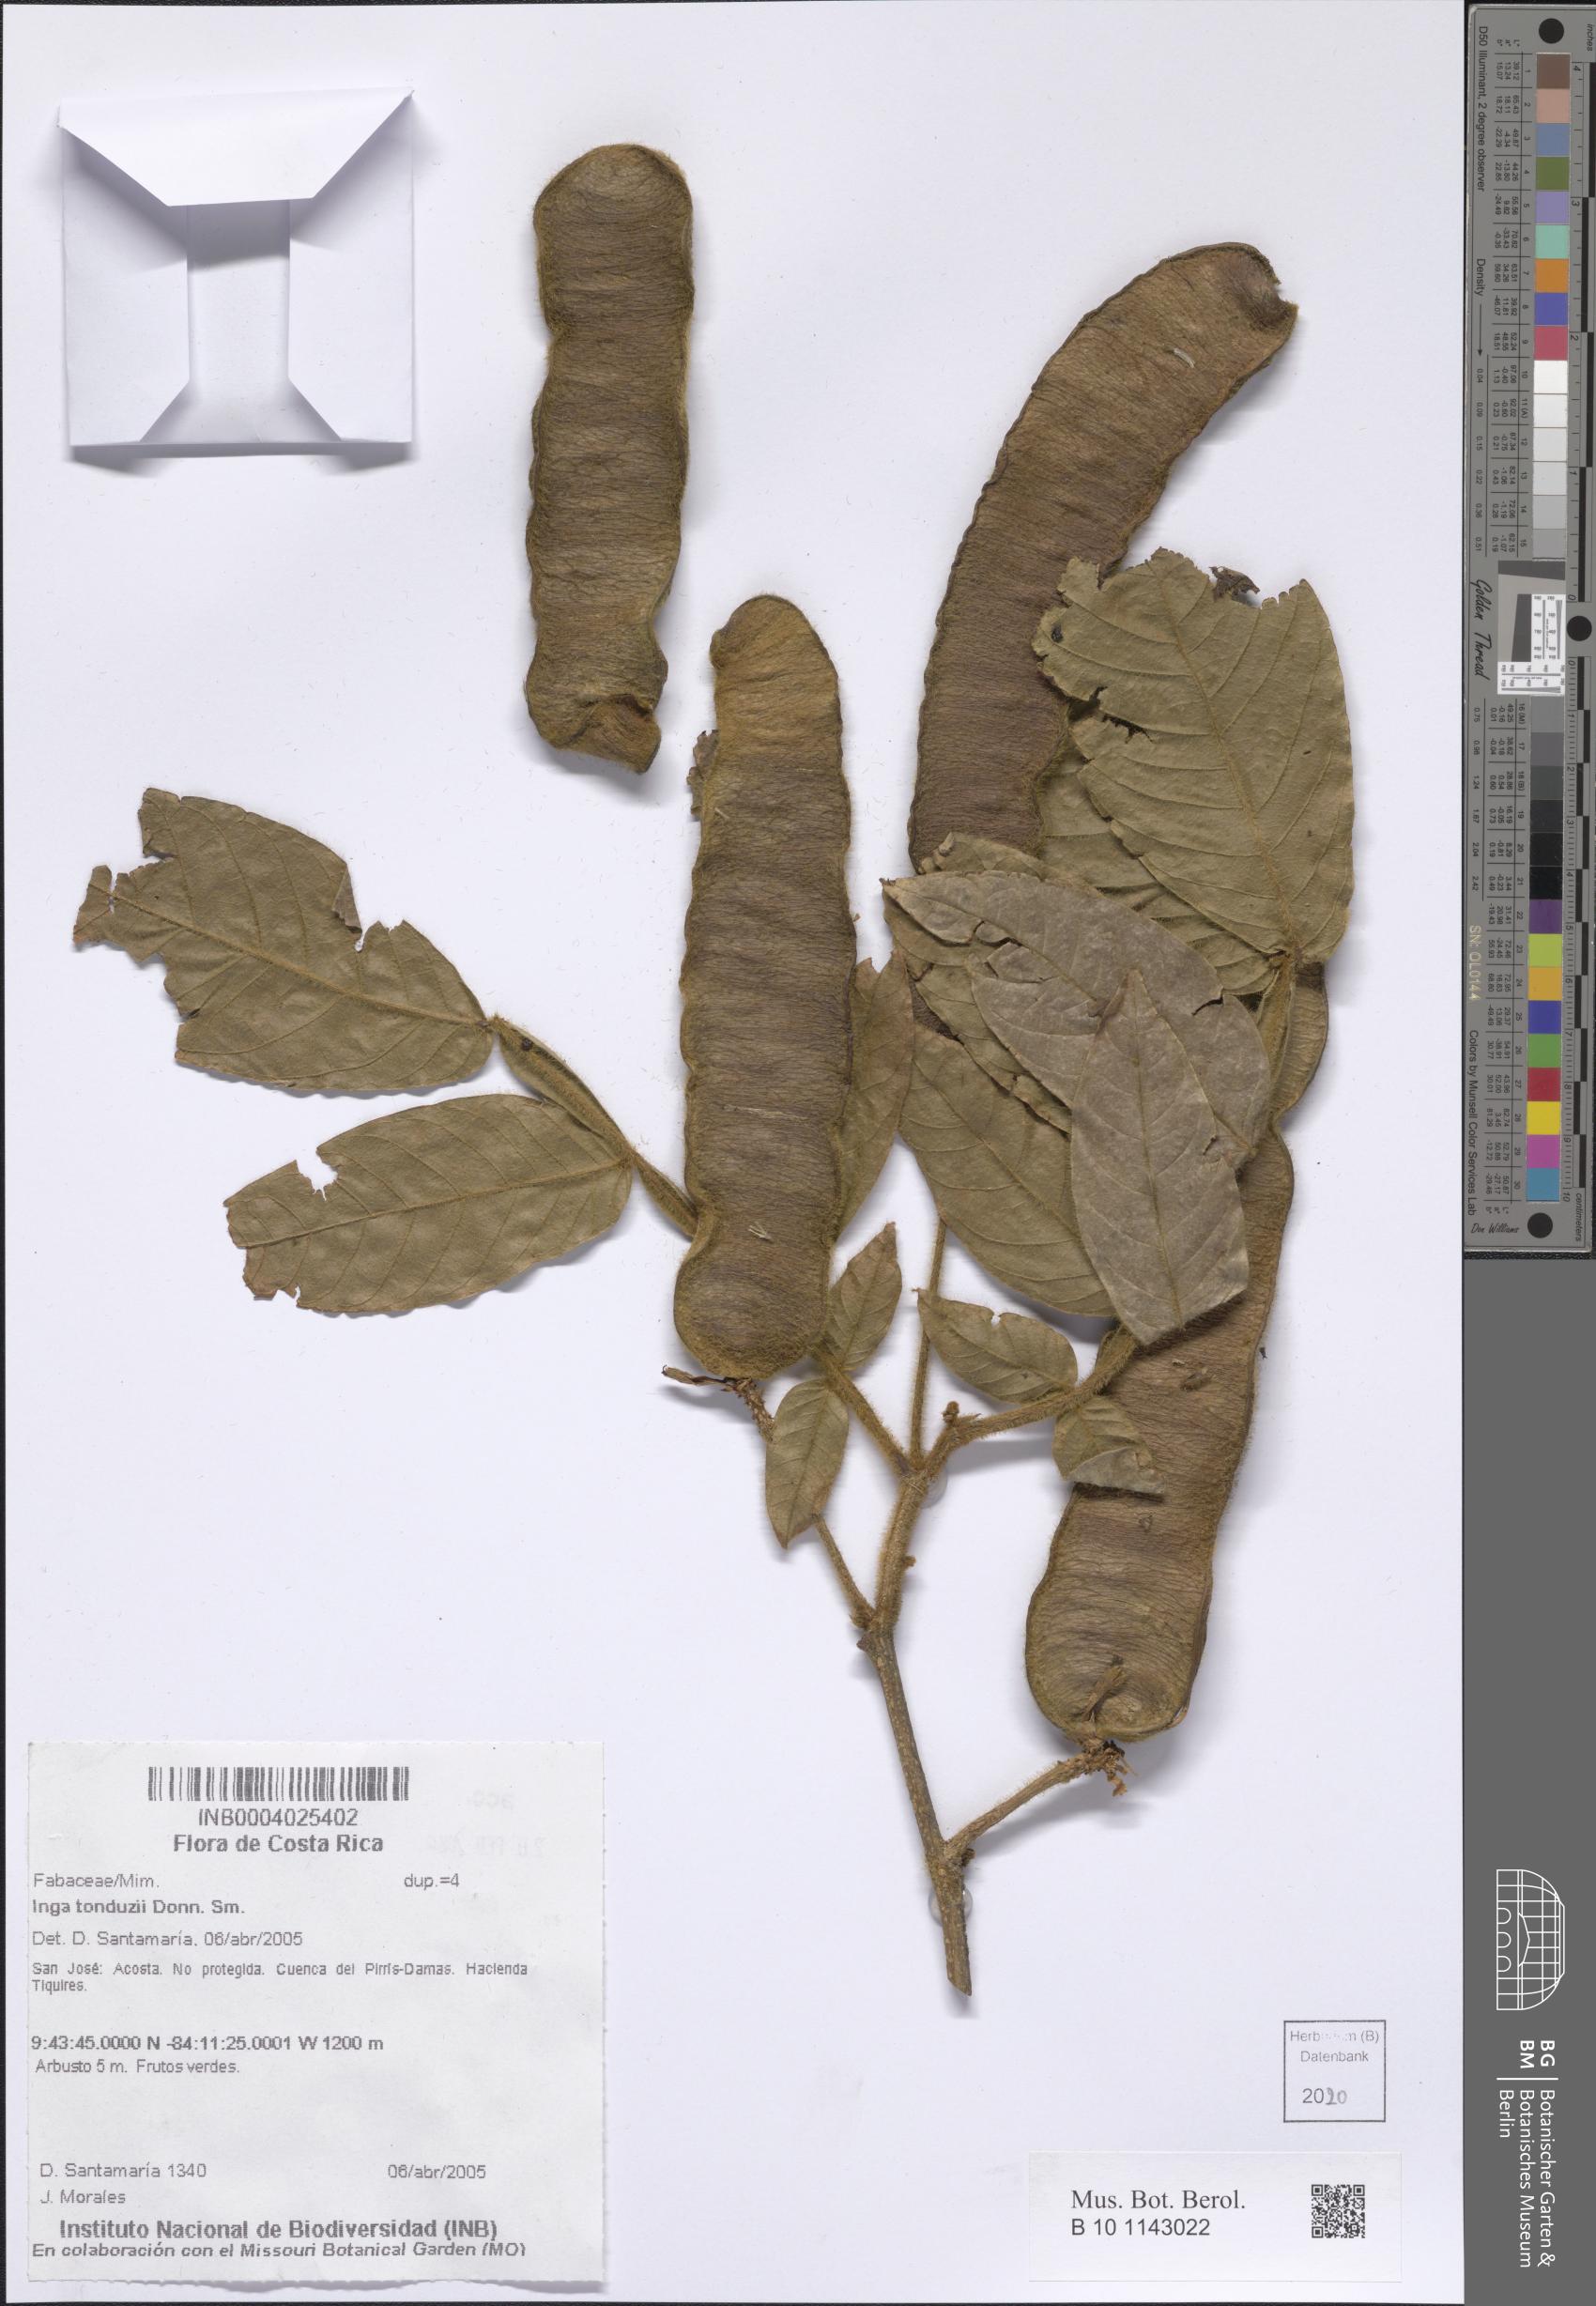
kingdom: Plantae
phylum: Tracheophyta
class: Magnoliopsida
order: Fabales
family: Fabaceae
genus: Inga
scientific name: Inga tonduzii
